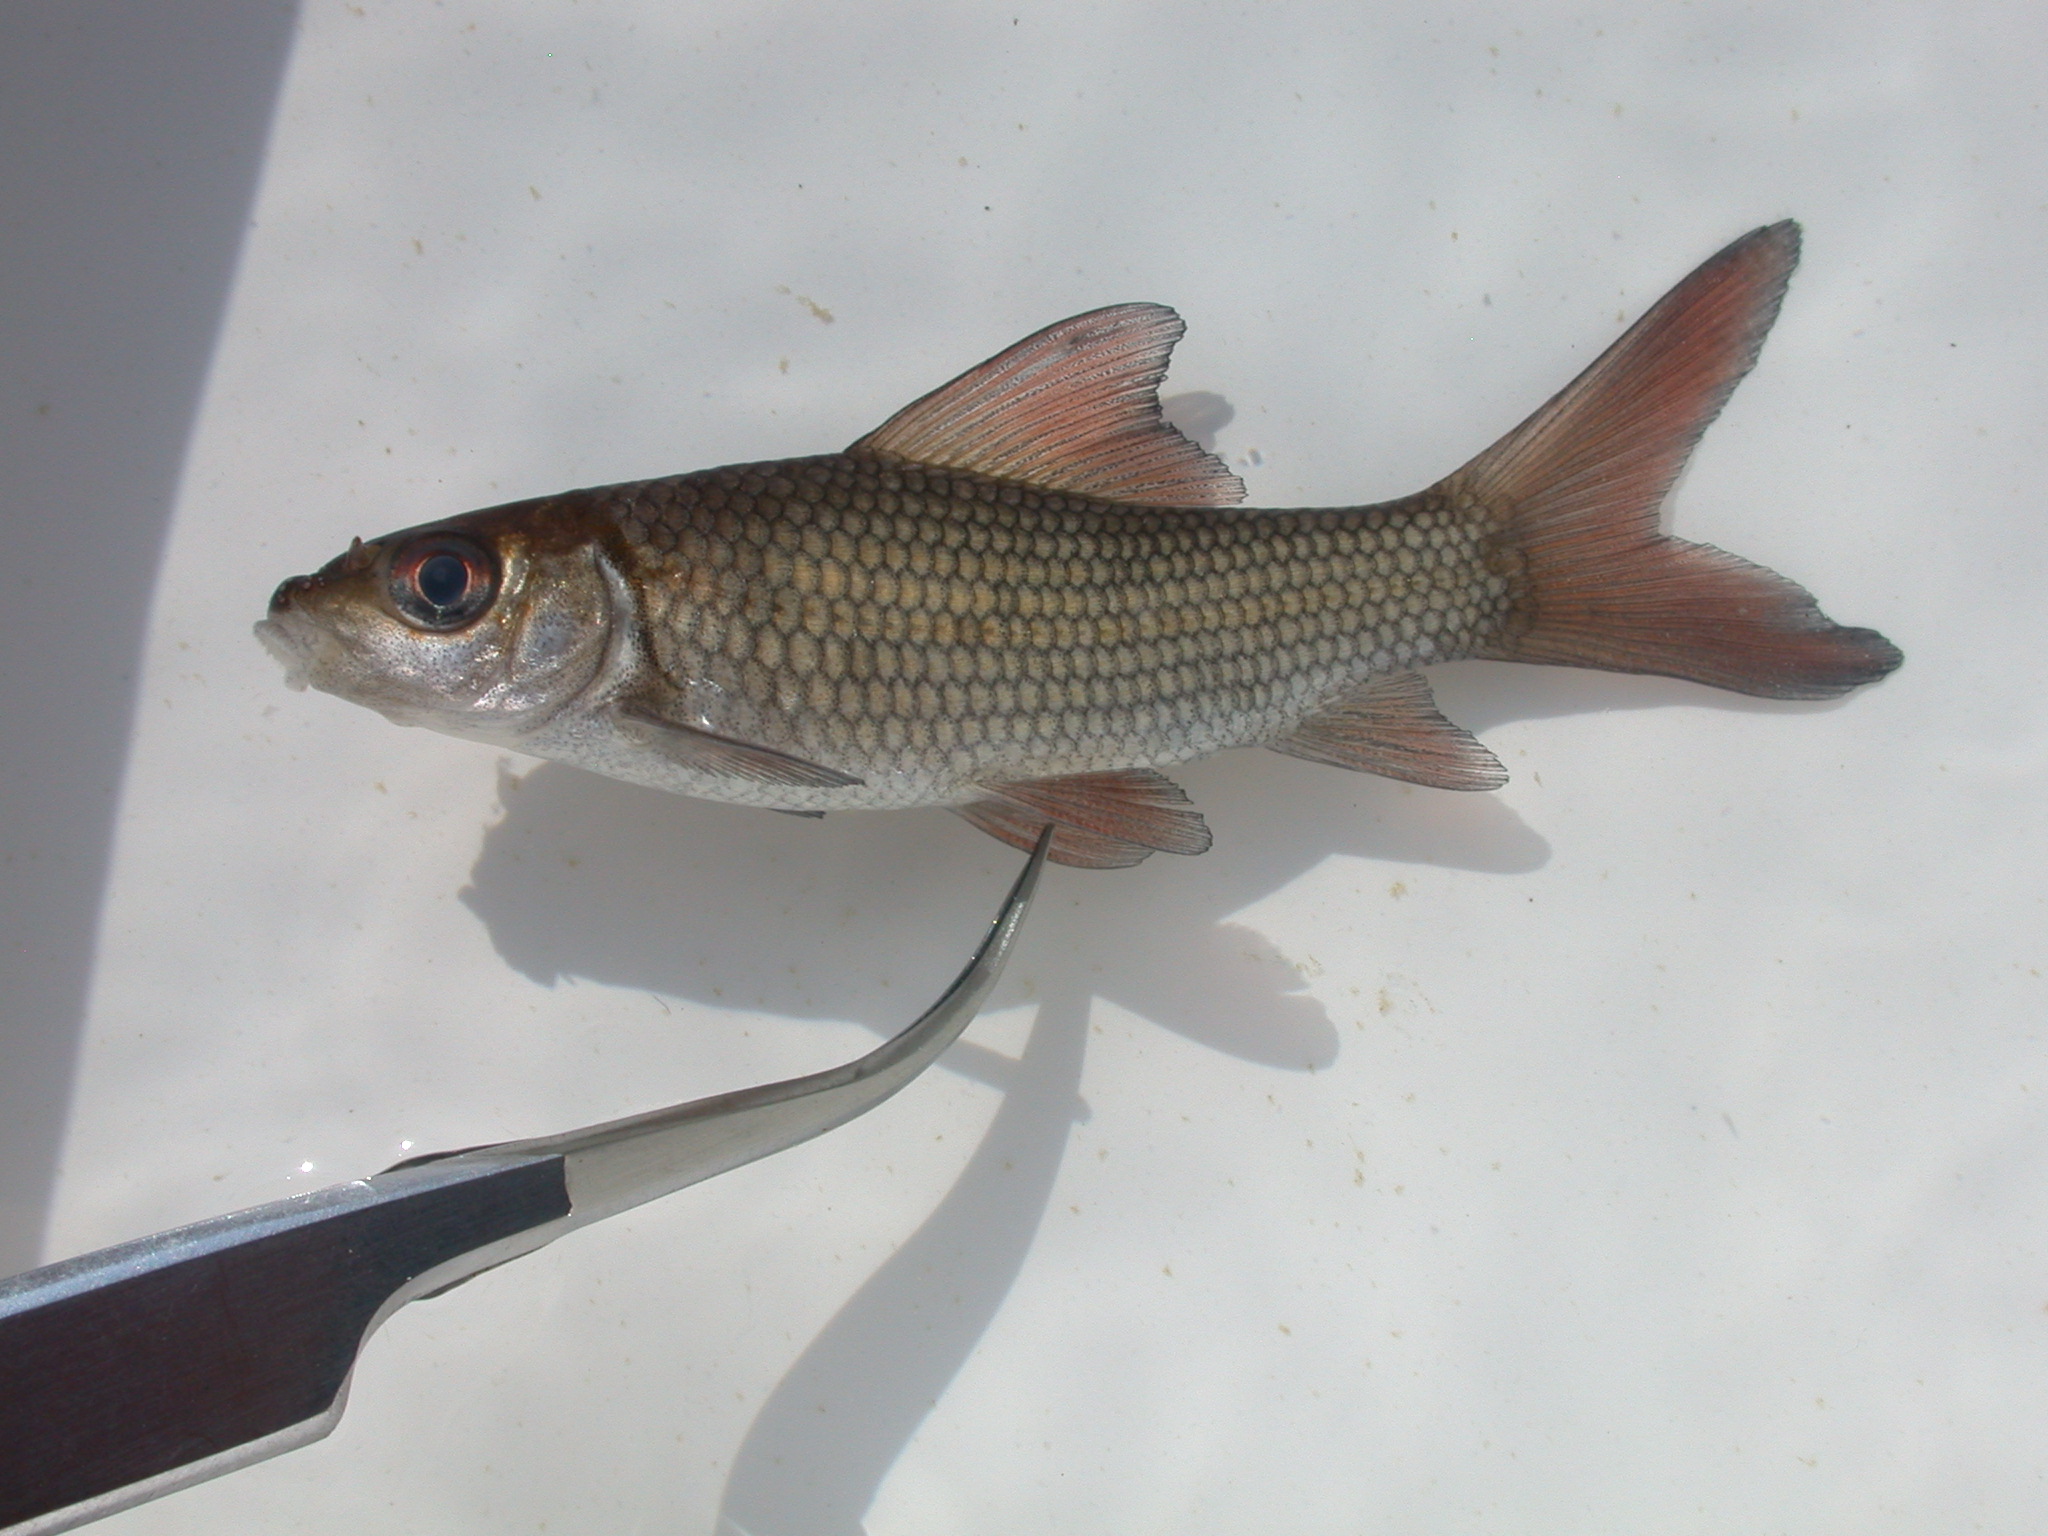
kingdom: Animalia
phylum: Chordata
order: Cypriniformes
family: Cyprinidae
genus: Labeo
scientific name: Labeo altivelis
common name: Hunyani labeo
